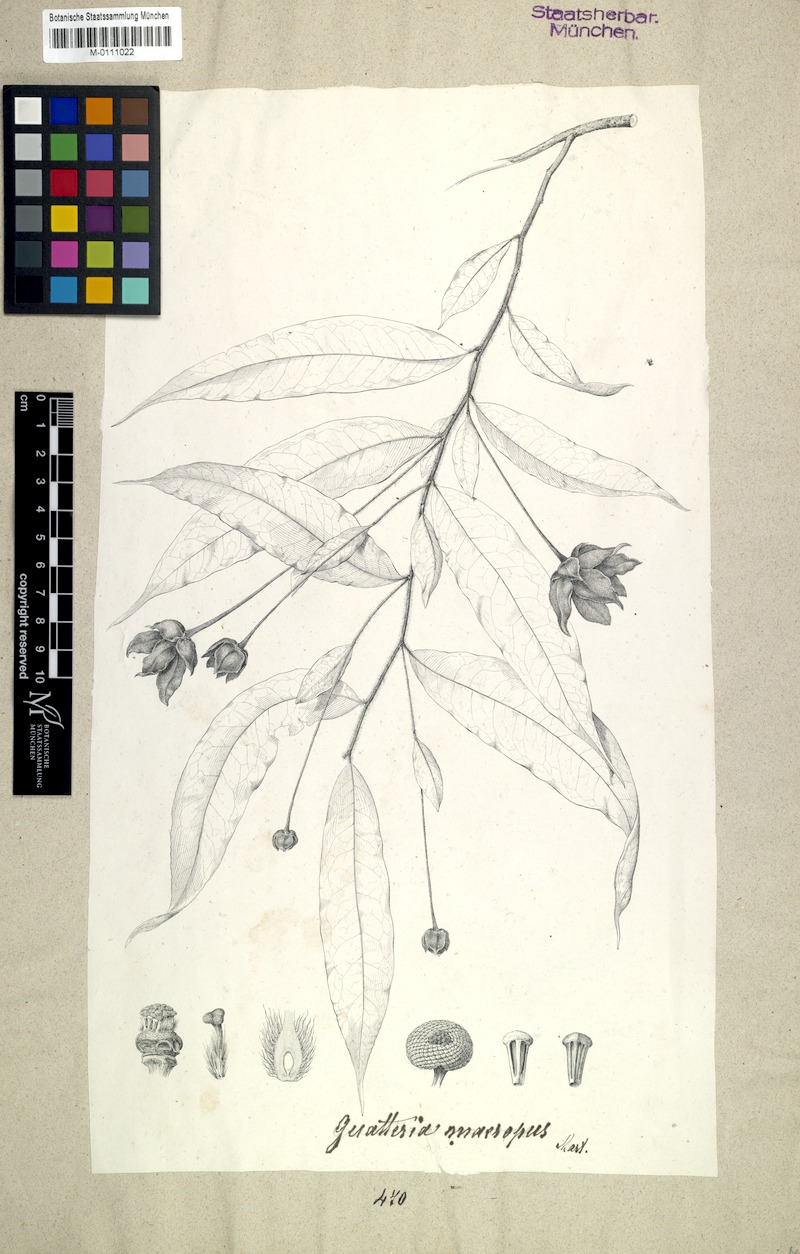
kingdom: Plantae
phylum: Tracheophyta
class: Magnoliopsida
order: Magnoliales
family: Annonaceae
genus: Guatteria
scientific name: Guatteria macropus
